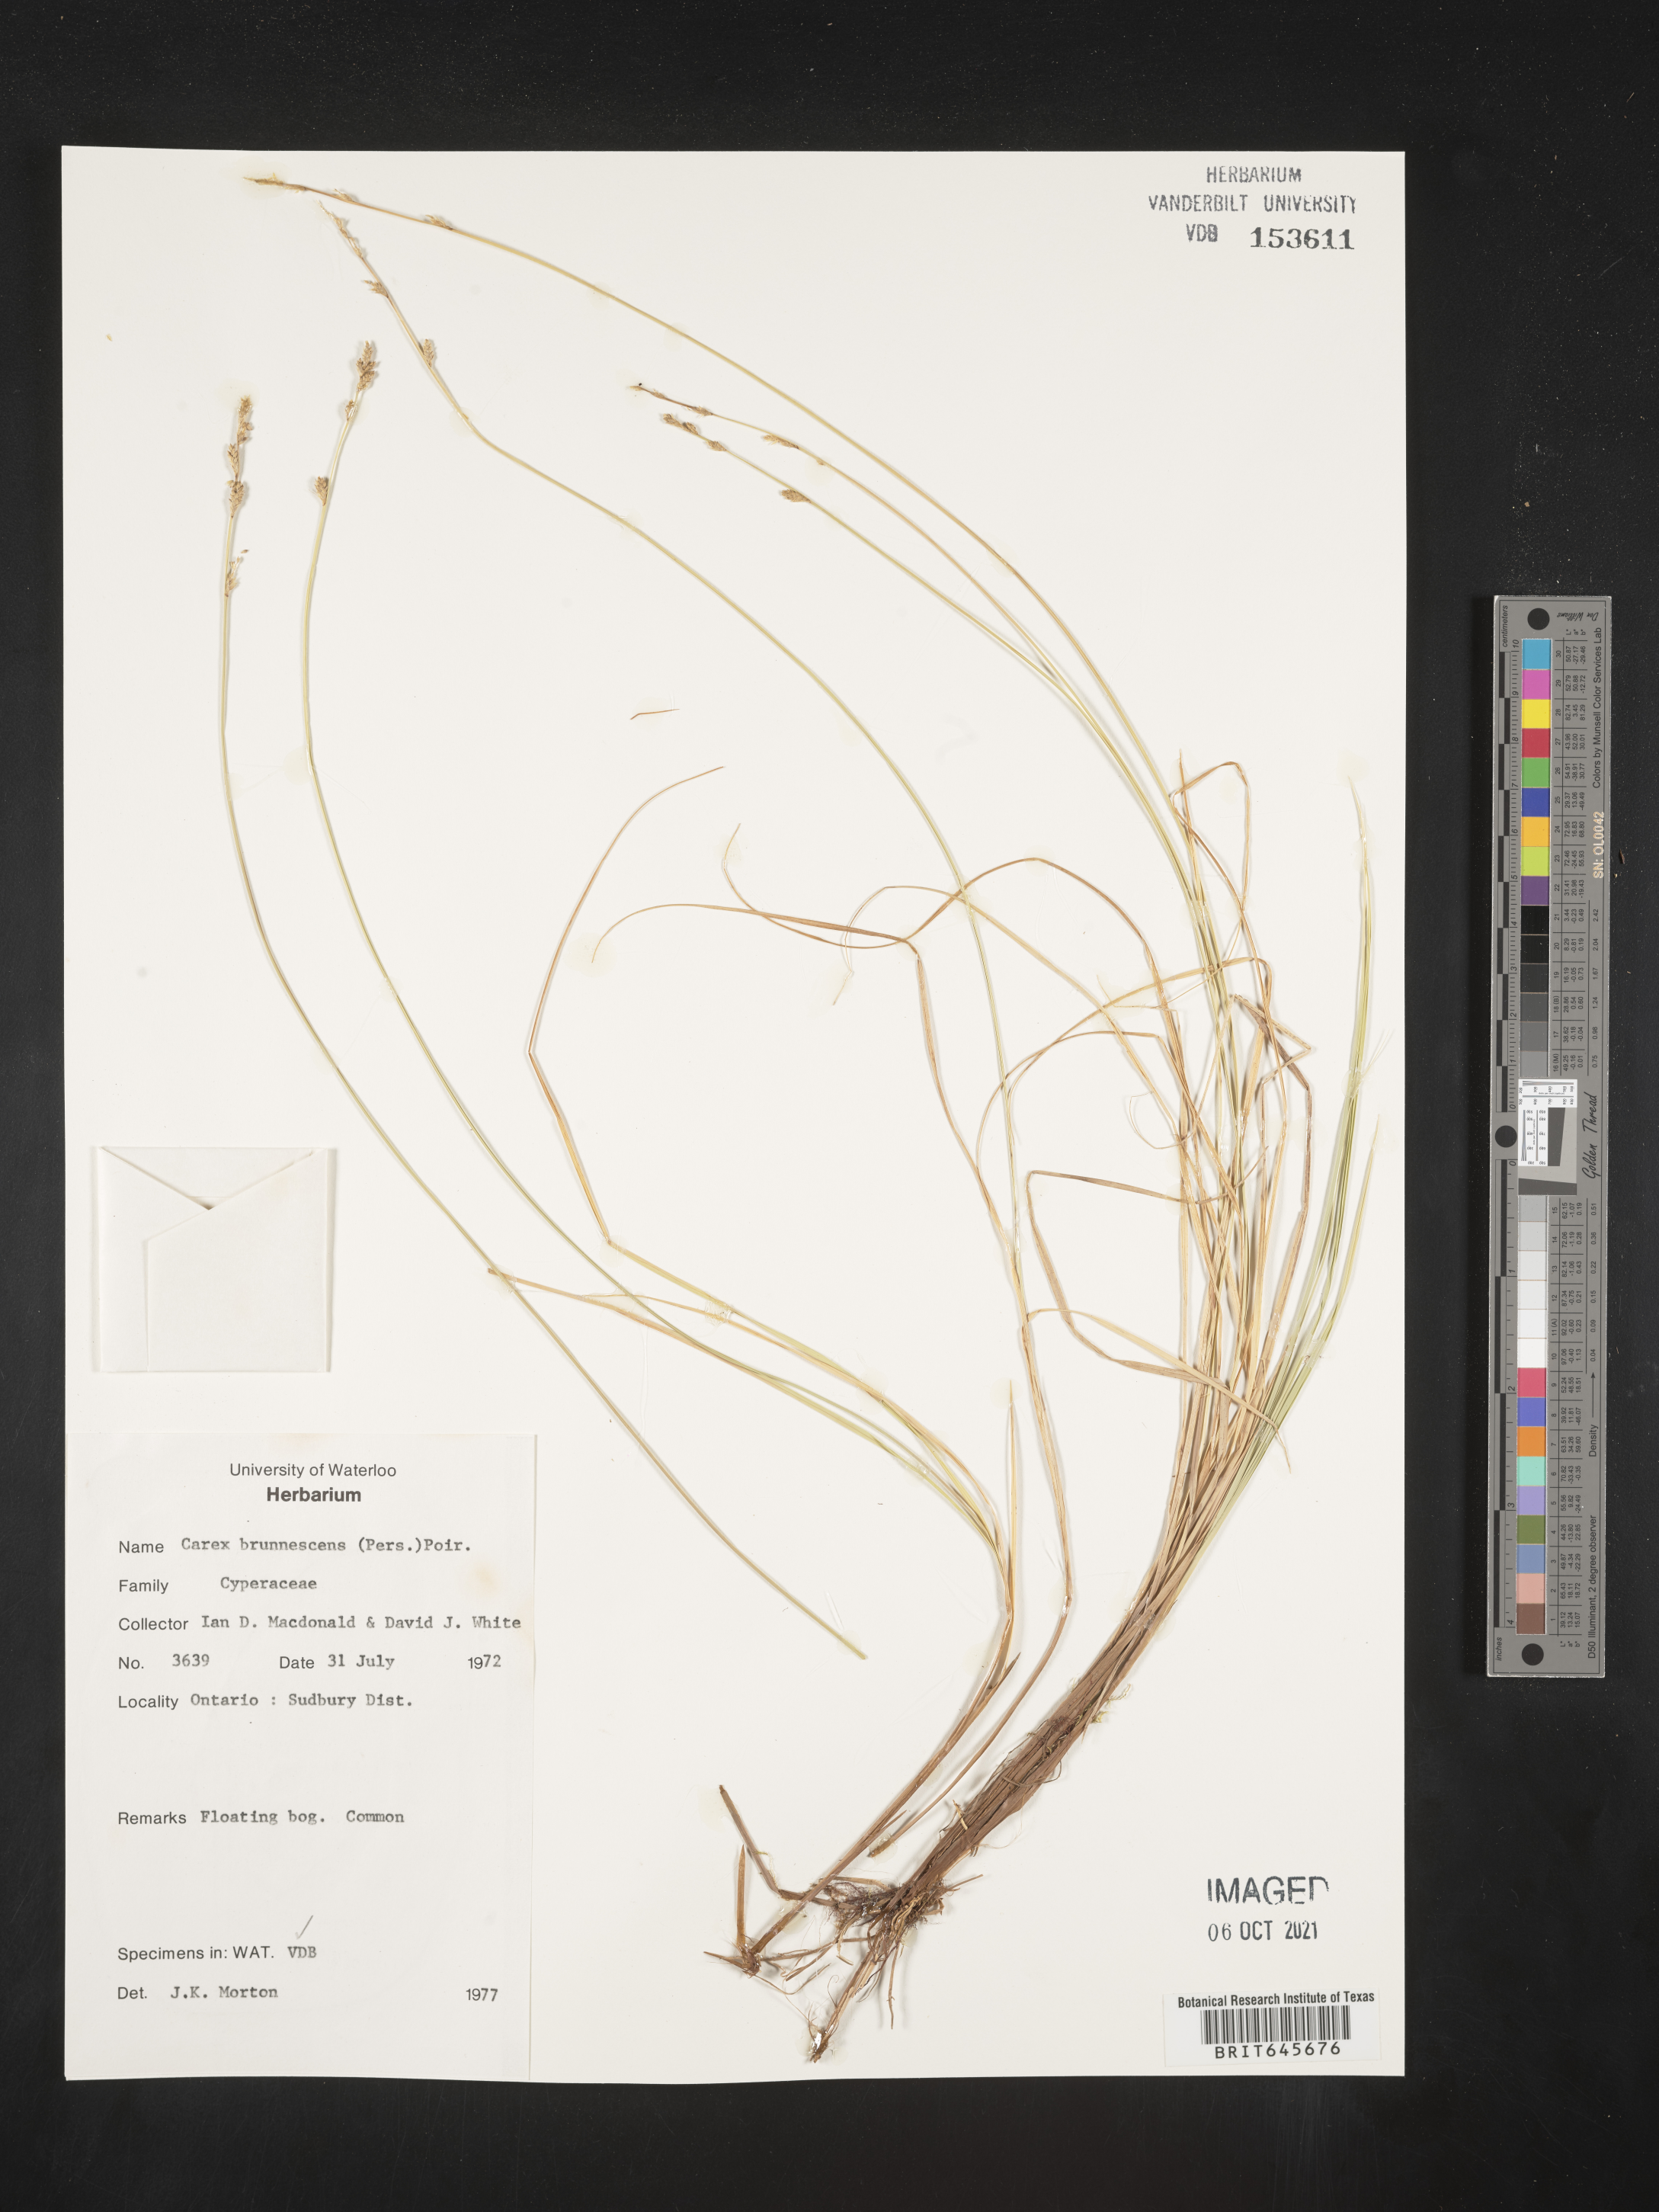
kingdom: Plantae
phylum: Tracheophyta
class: Liliopsida
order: Poales
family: Cyperaceae
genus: Carex
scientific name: Carex brunnescens
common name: Brown sedge
